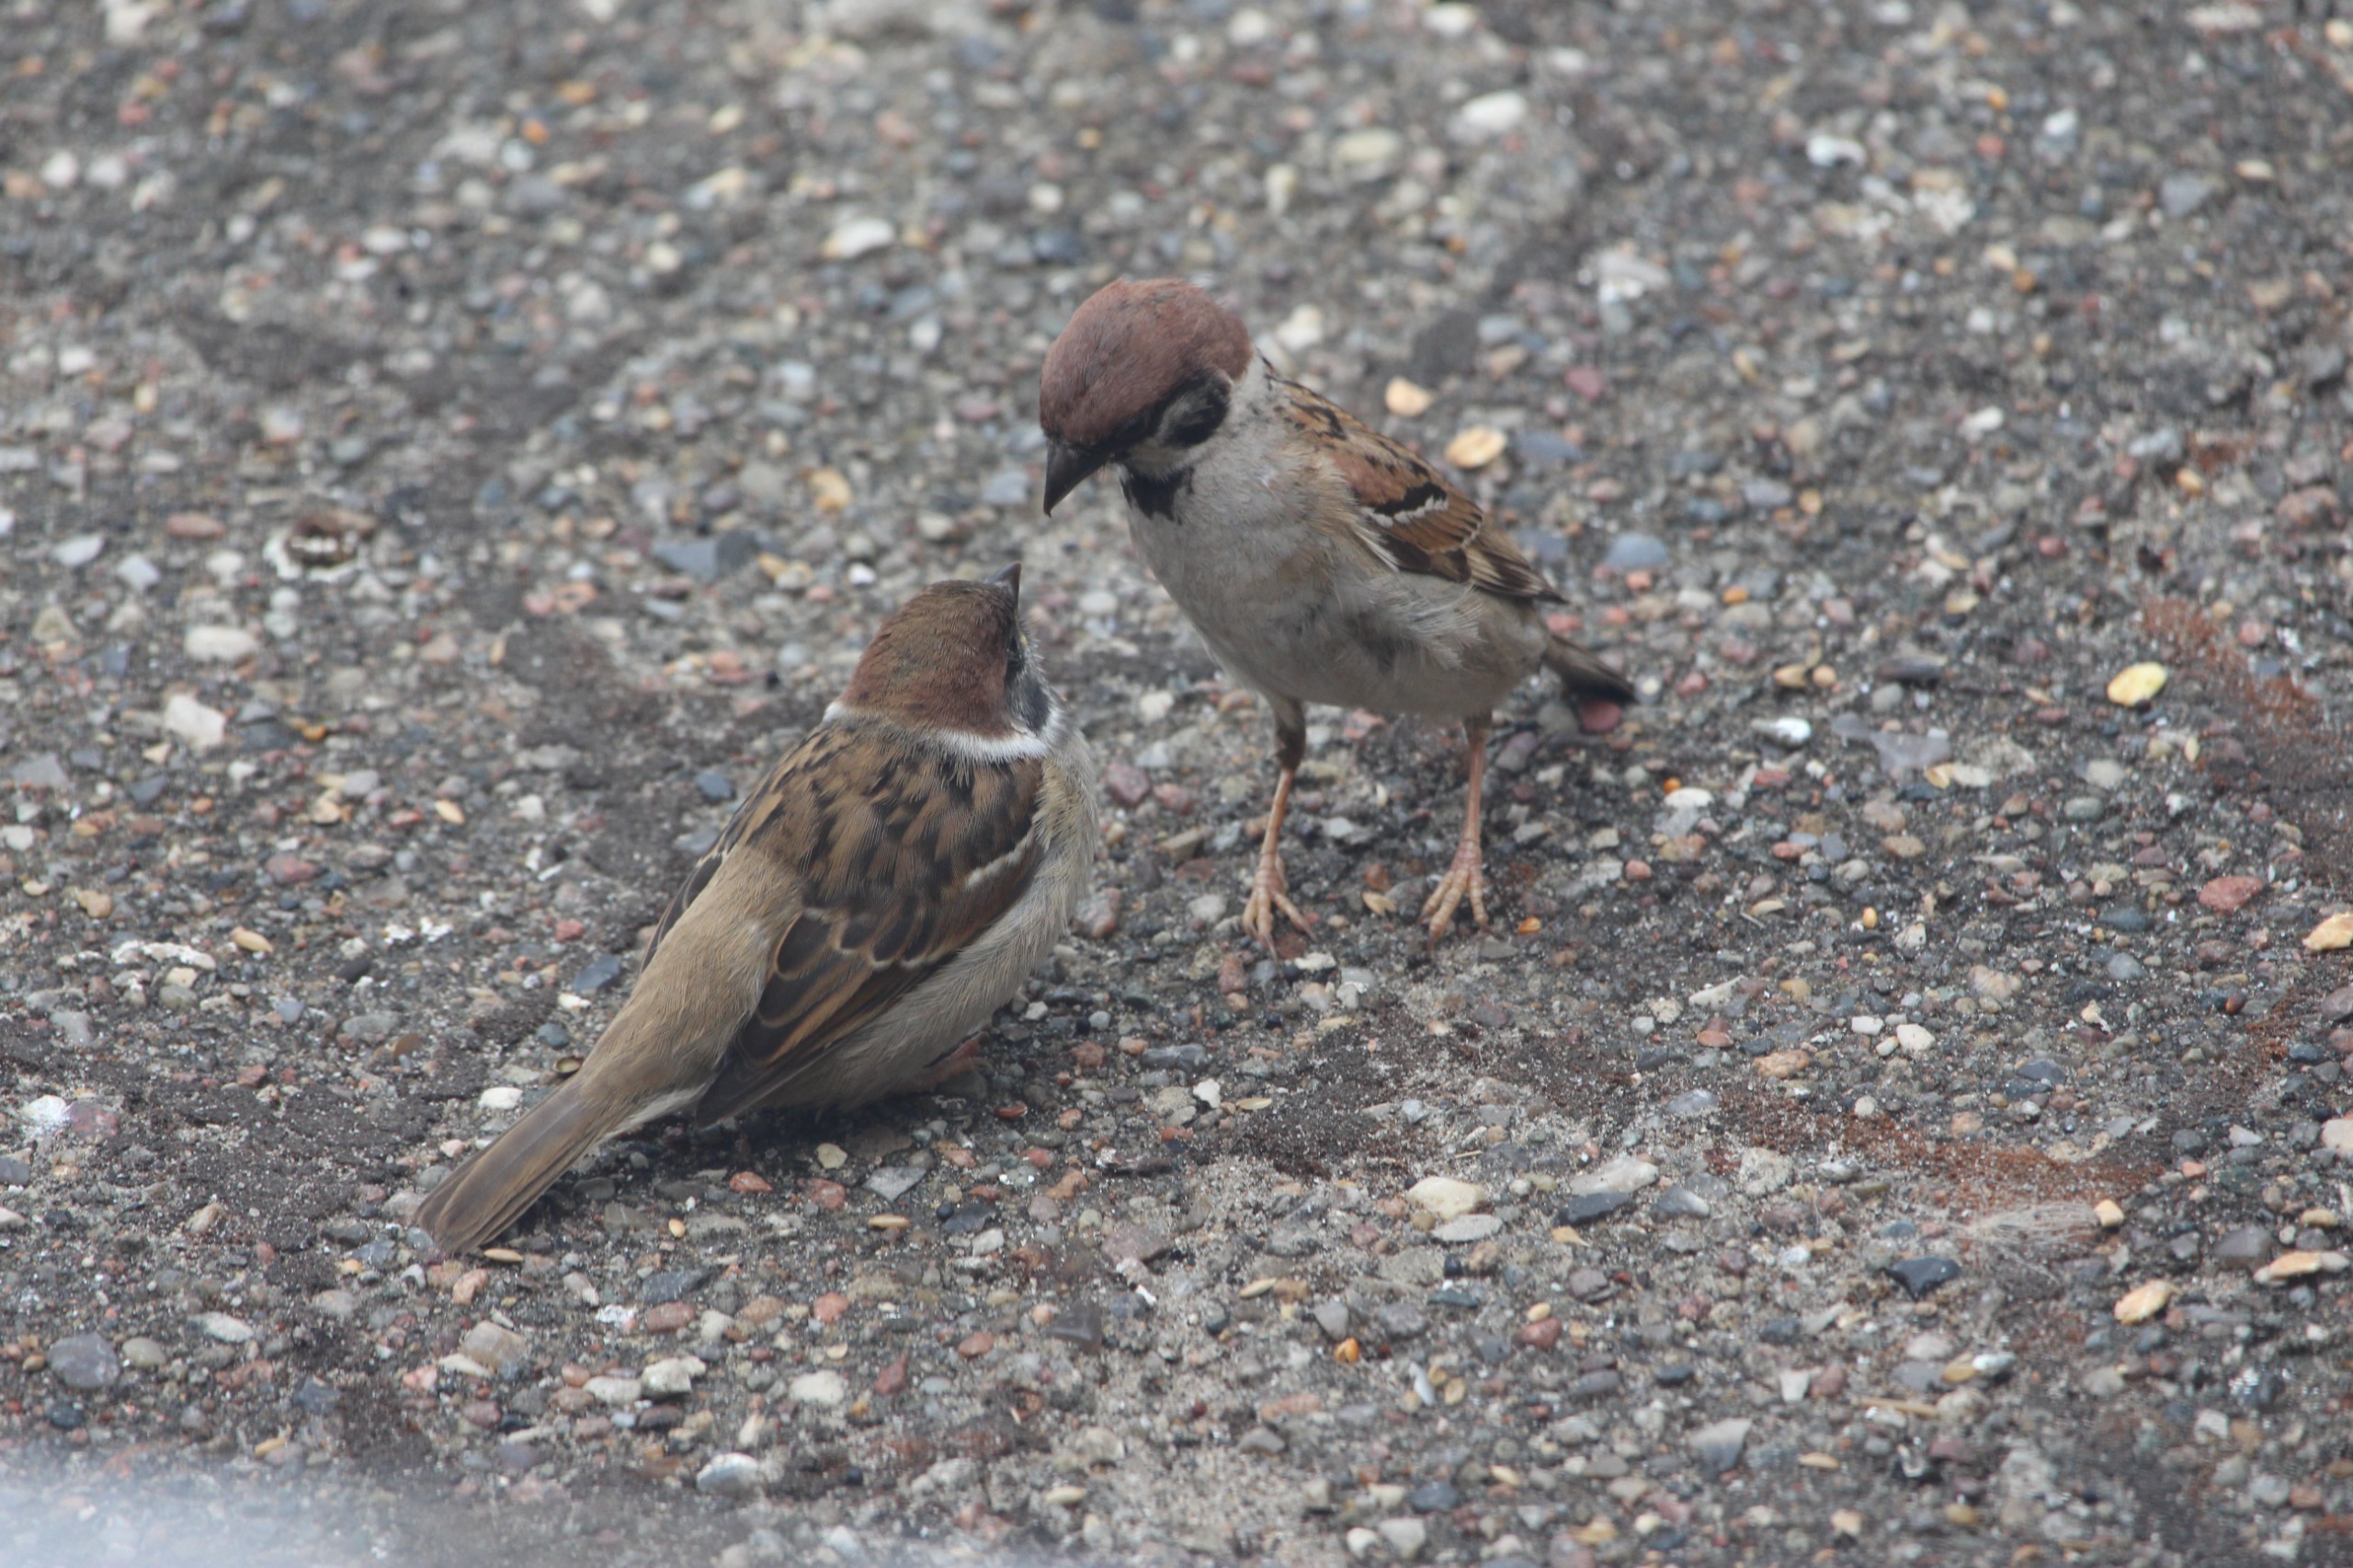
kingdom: Animalia
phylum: Chordata
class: Aves
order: Passeriformes
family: Passeridae
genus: Passer
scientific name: Passer montanus
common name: Skovspurv
